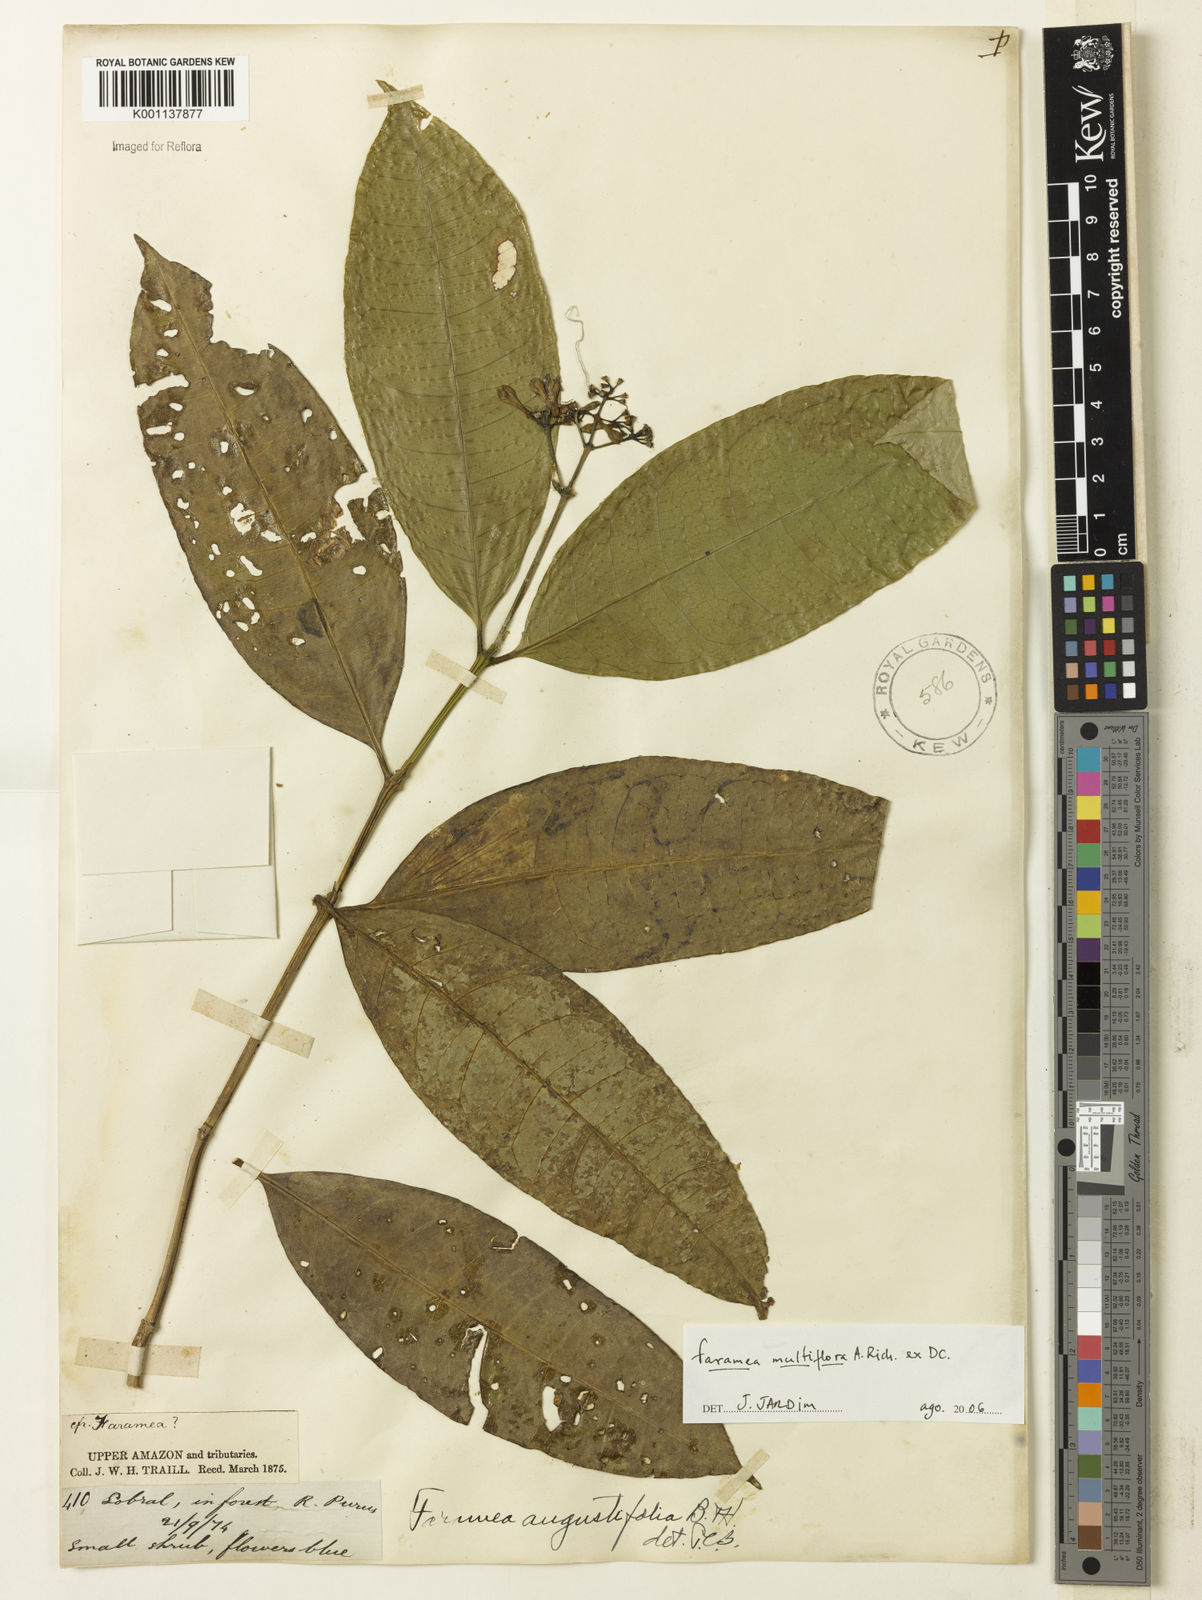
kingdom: Plantae
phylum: Tracheophyta
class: Magnoliopsida
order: Gentianales
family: Rubiaceae
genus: Faramea
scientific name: Faramea multiflora
